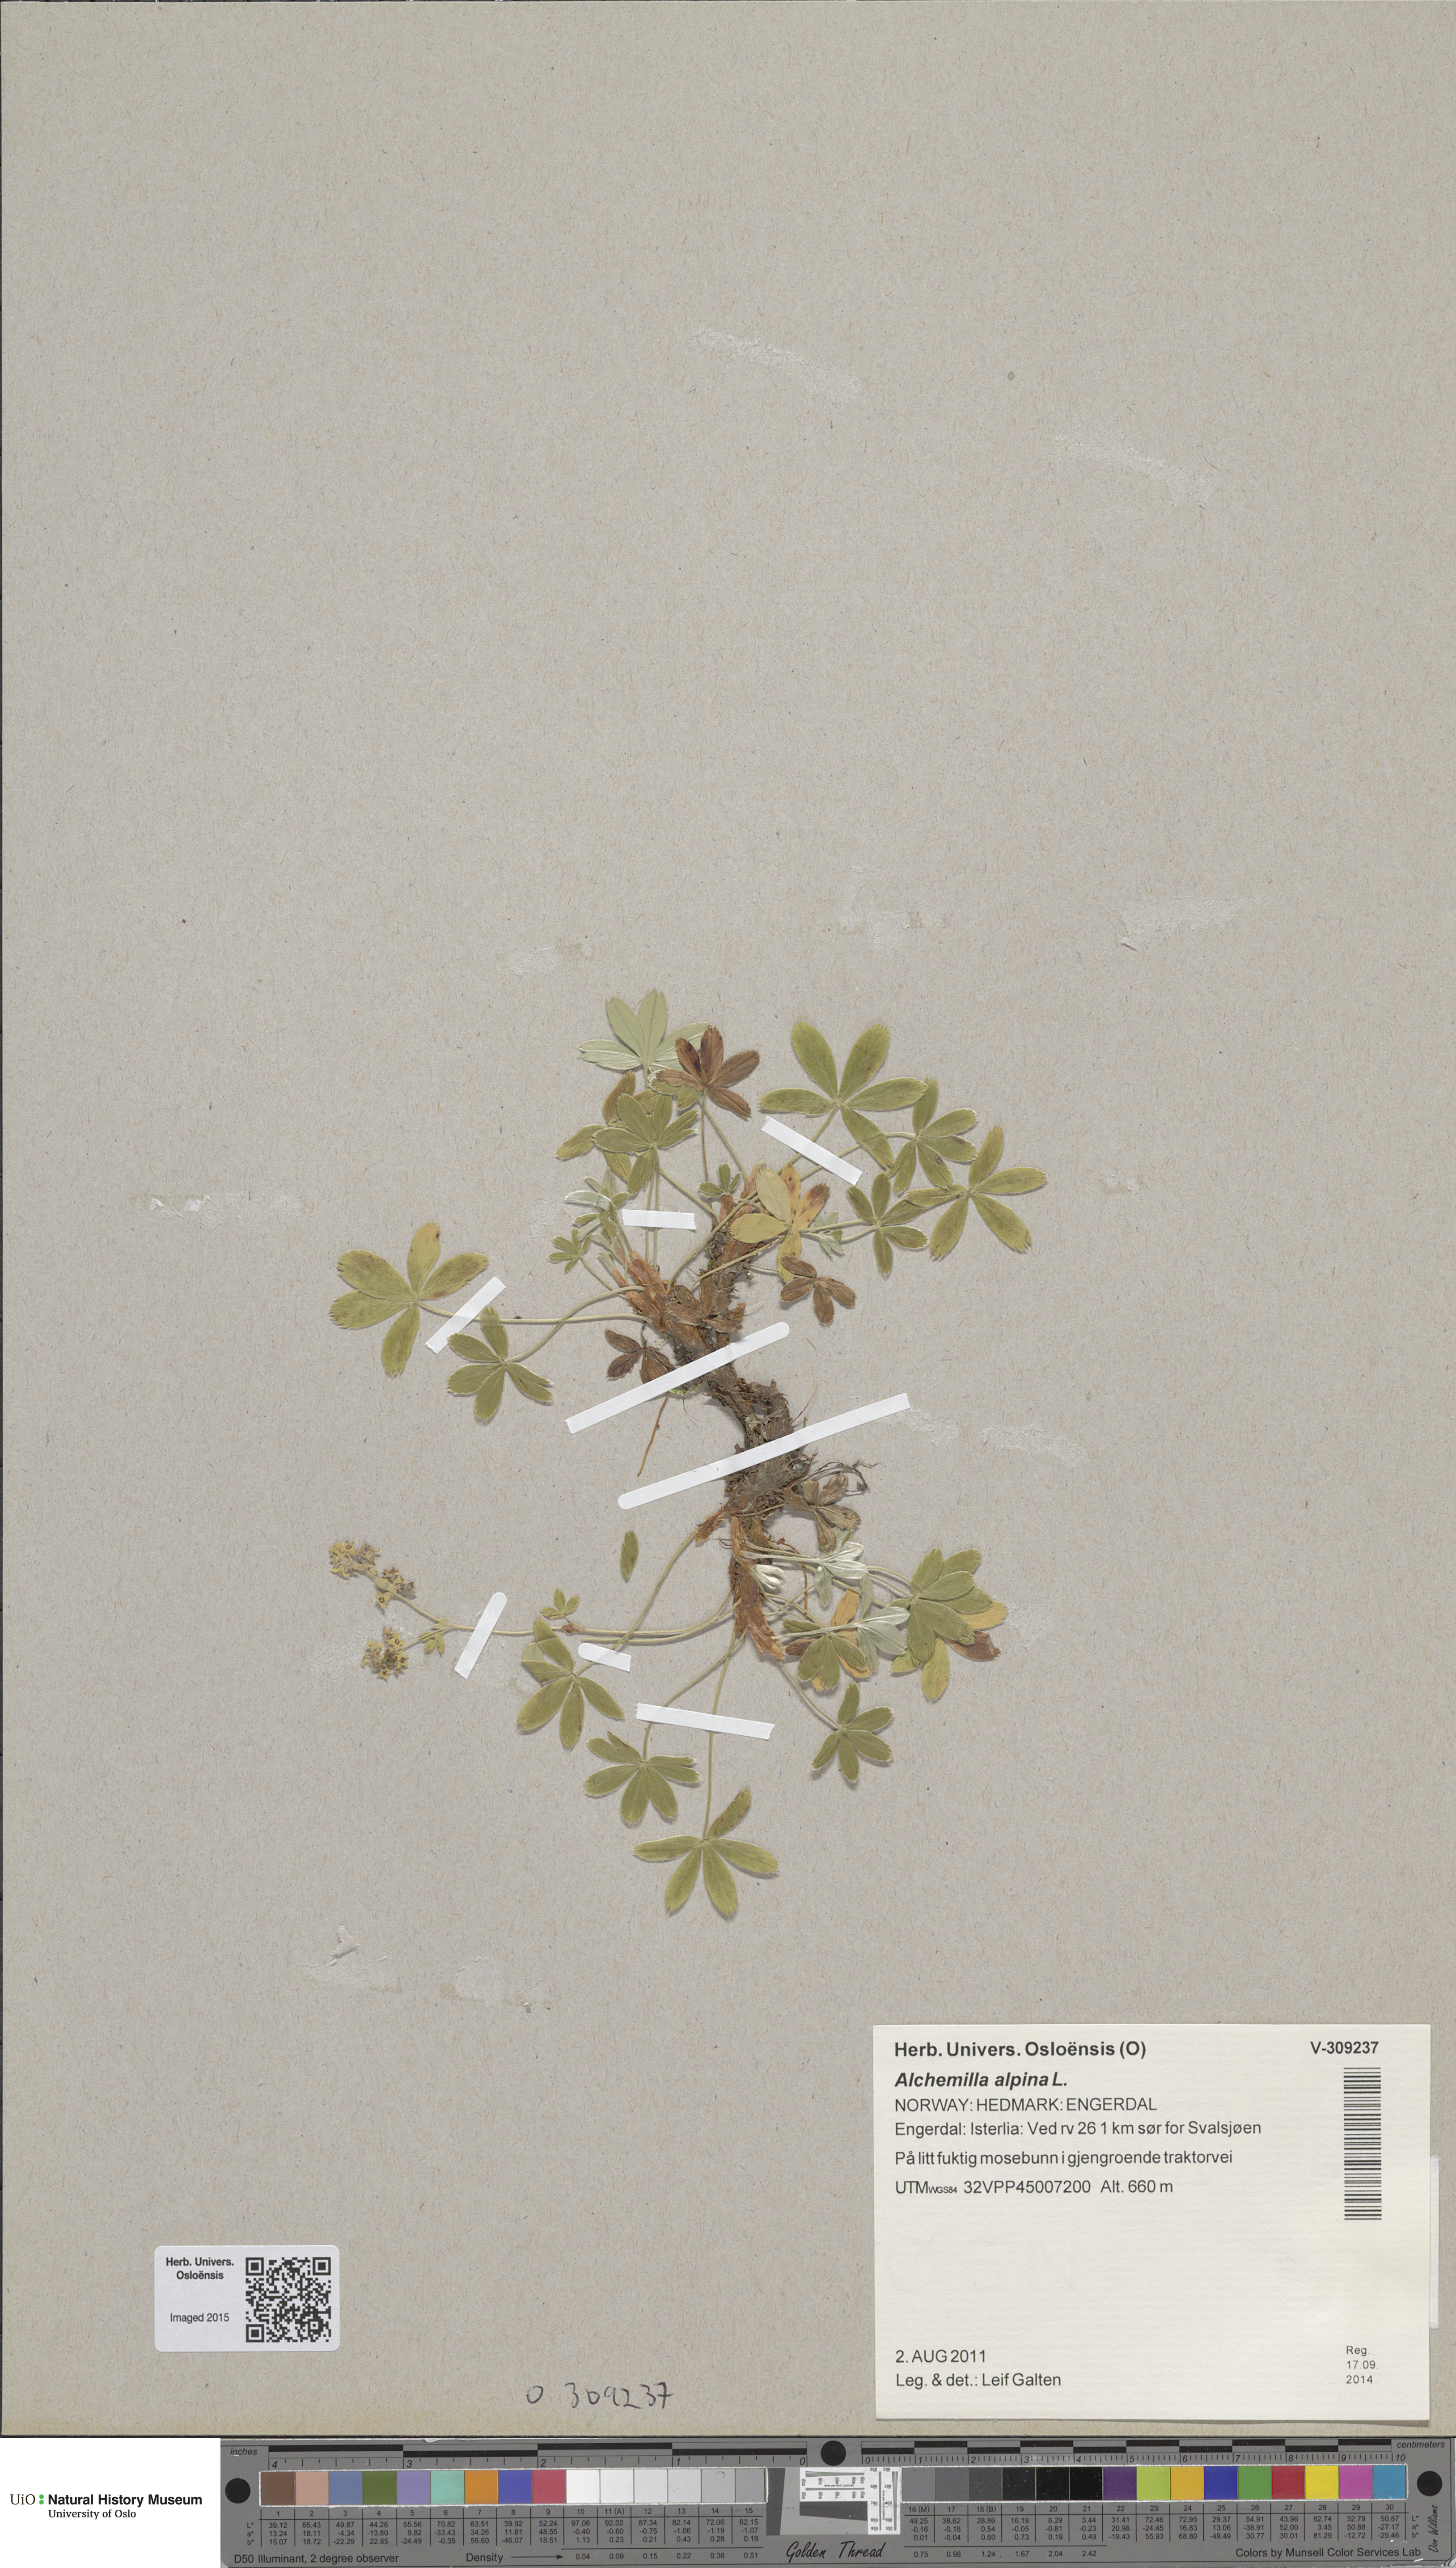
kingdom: Plantae
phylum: Tracheophyta
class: Magnoliopsida
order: Rosales
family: Rosaceae
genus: Alchemilla
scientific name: Alchemilla alpina
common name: Alpine lady's-mantle
